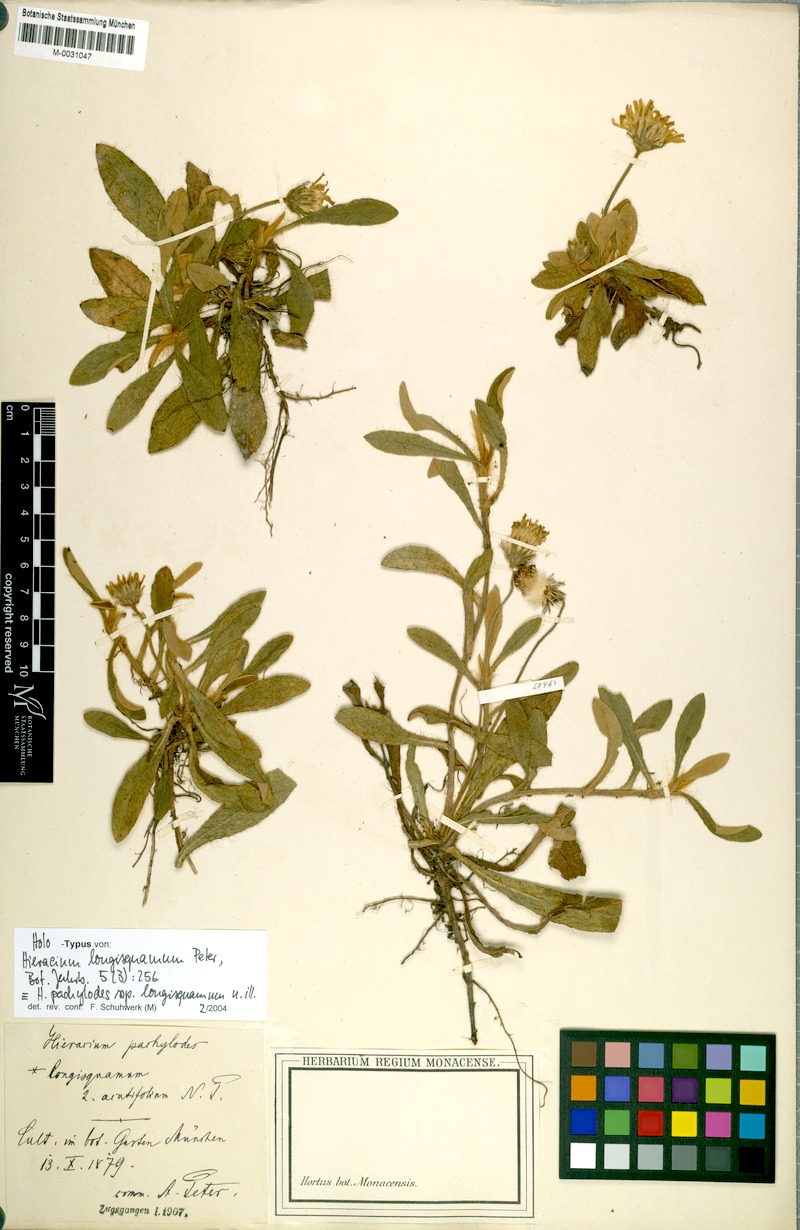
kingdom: Plantae
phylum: Tracheophyta
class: Magnoliopsida
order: Asterales
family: Asteraceae
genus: Pilosella
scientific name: Pilosella longisquama
